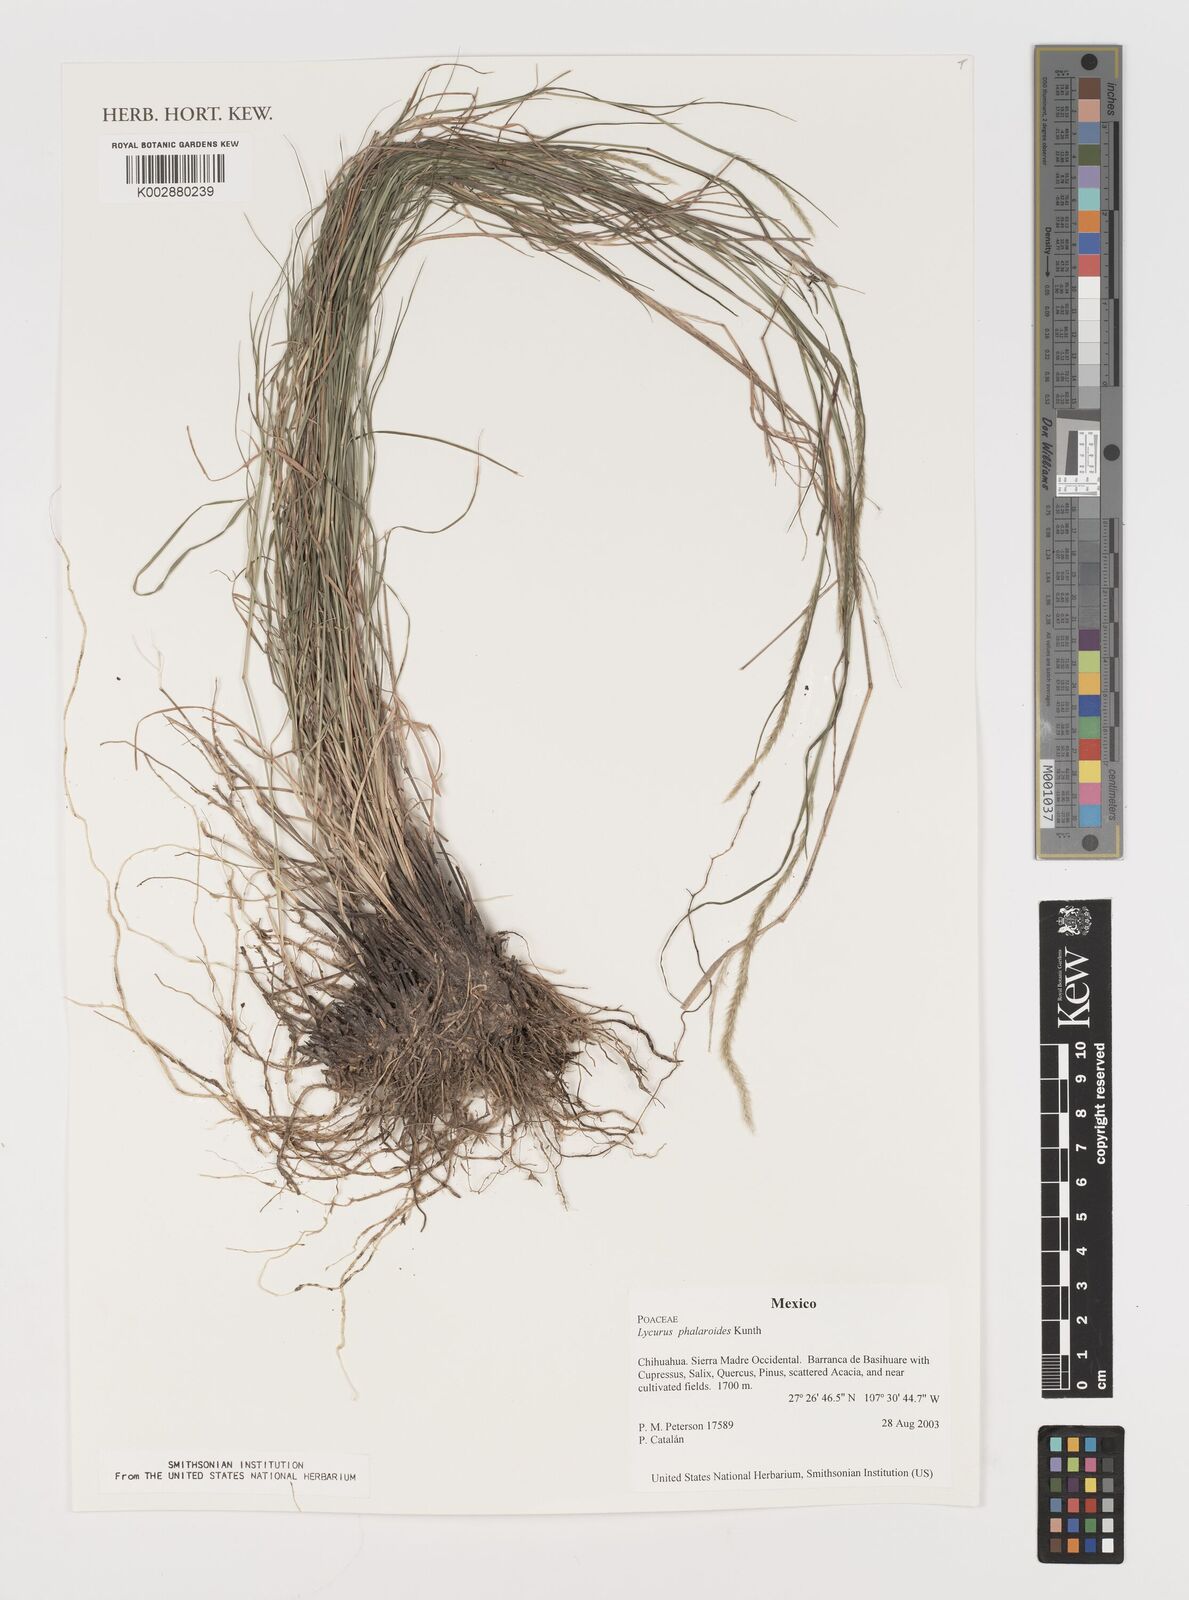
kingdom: Plantae
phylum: Tracheophyta
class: Liliopsida
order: Poales
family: Poaceae
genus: Muhlenbergia
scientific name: Muhlenbergia phalaroides
